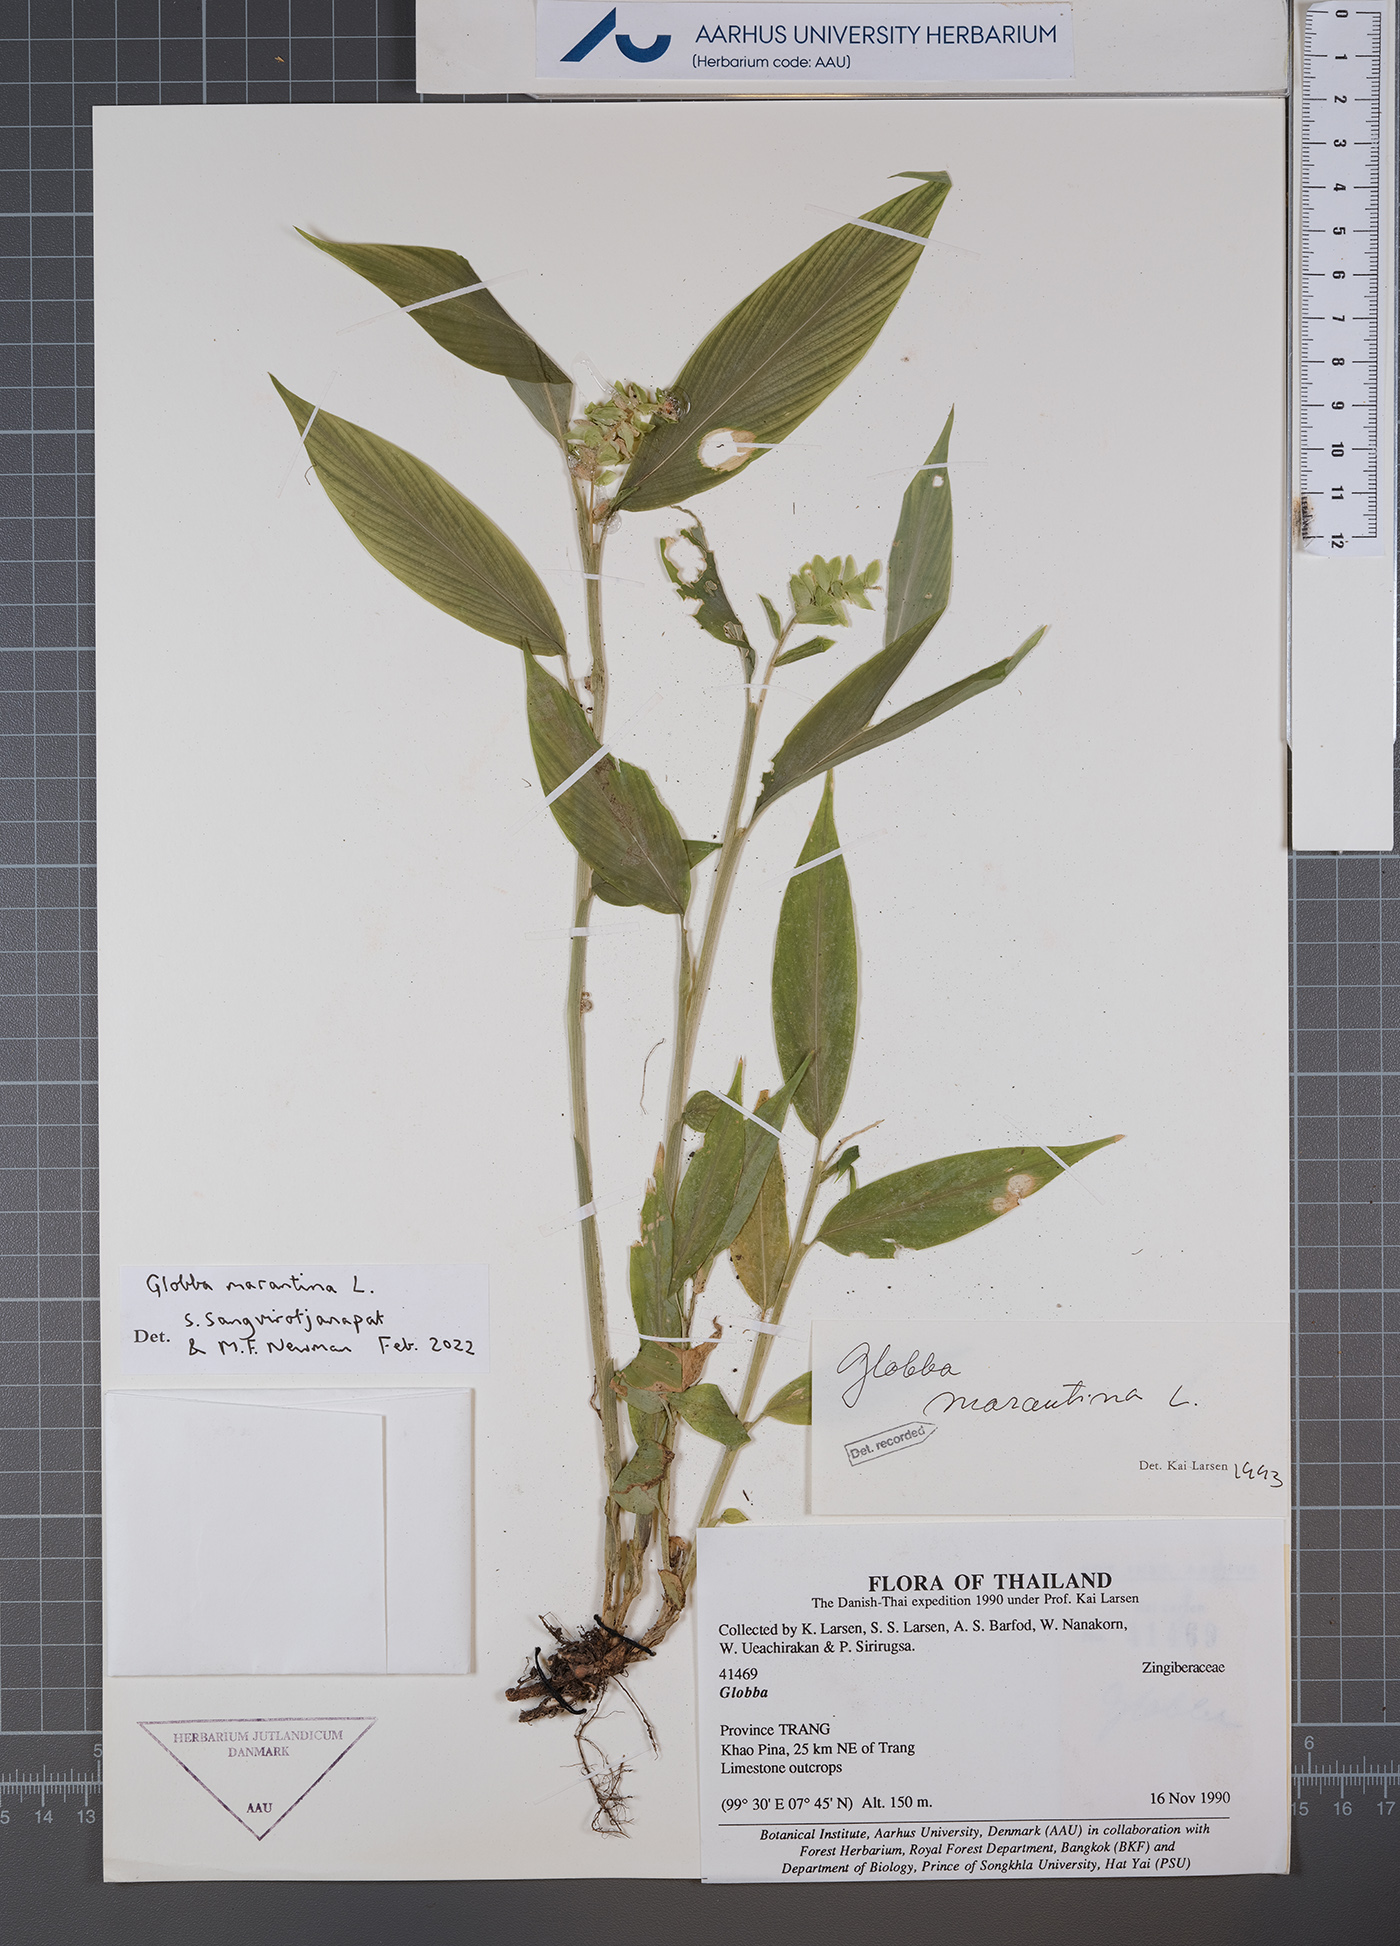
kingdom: Plantae
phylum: Tracheophyta
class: Liliopsida
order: Zingiberales
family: Zingiberaceae
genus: Globba
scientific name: Globba marantina
